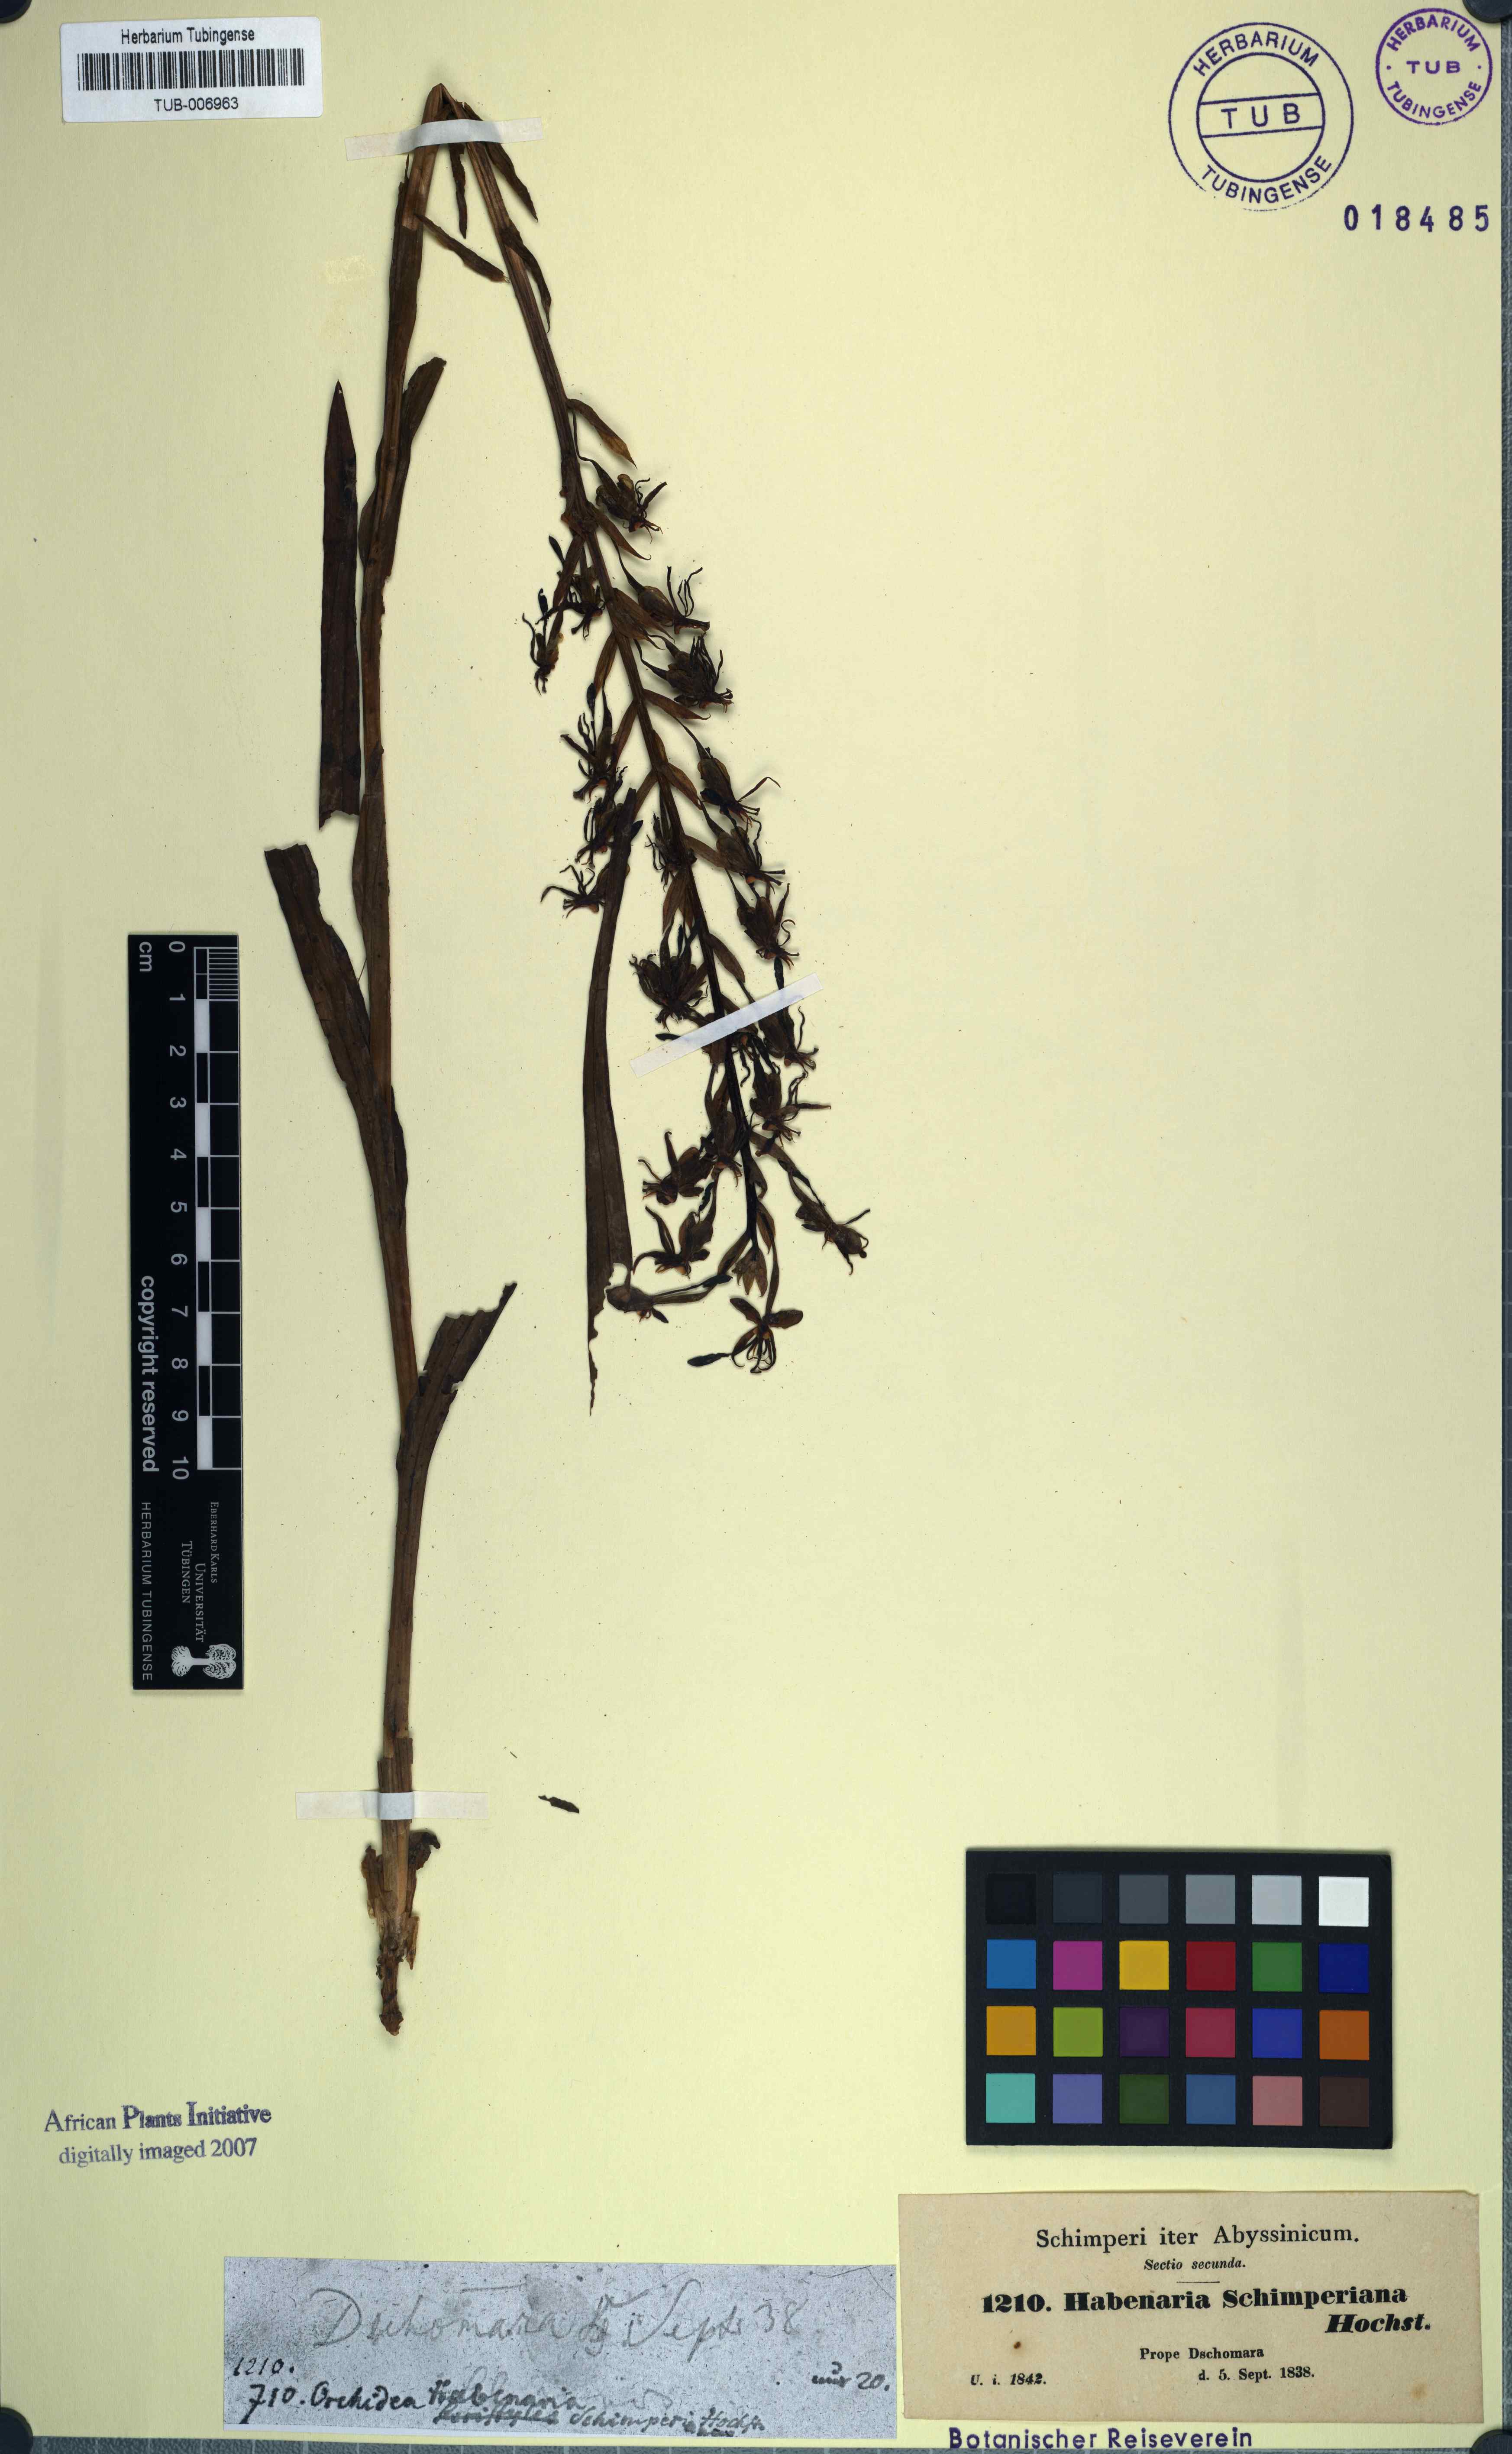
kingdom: Plantae
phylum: Tracheophyta
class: Liliopsida
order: Asparagales
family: Orchidaceae
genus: Habenaria
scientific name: Habenaria schimperiana
